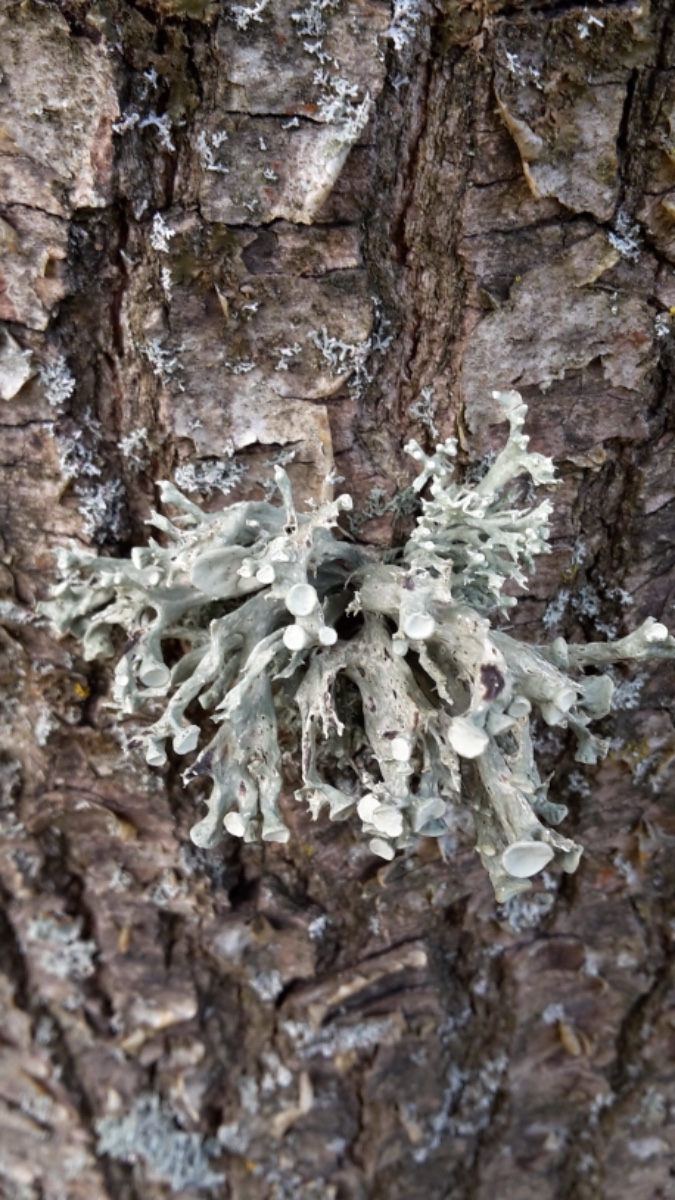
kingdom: Fungi
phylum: Ascomycota
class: Lecanoromycetes
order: Lecanorales
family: Ramalinaceae
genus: Ramalina
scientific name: Ramalina fastigiata
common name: tue-grenlav
